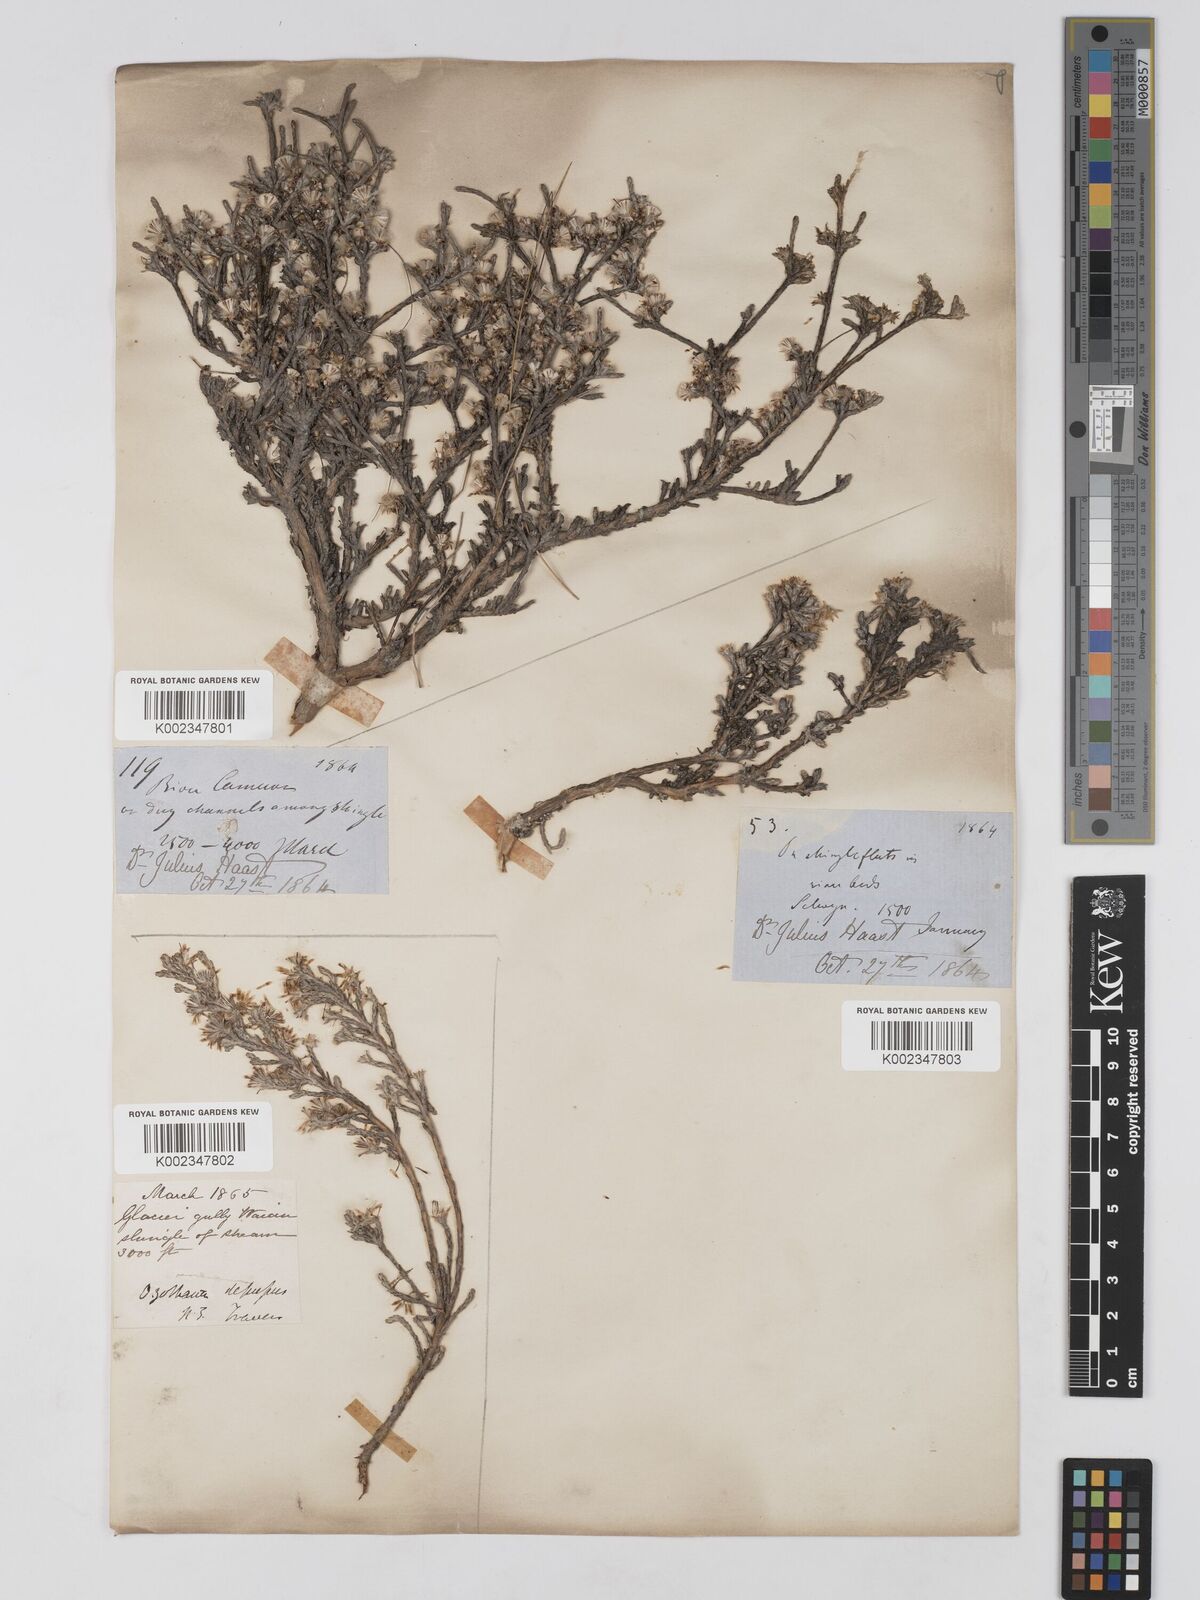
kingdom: Plantae
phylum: Tracheophyta
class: Magnoliopsida
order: Asterales
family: Asteraceae
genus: Ozothamnus
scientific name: Ozothamnus depressus
